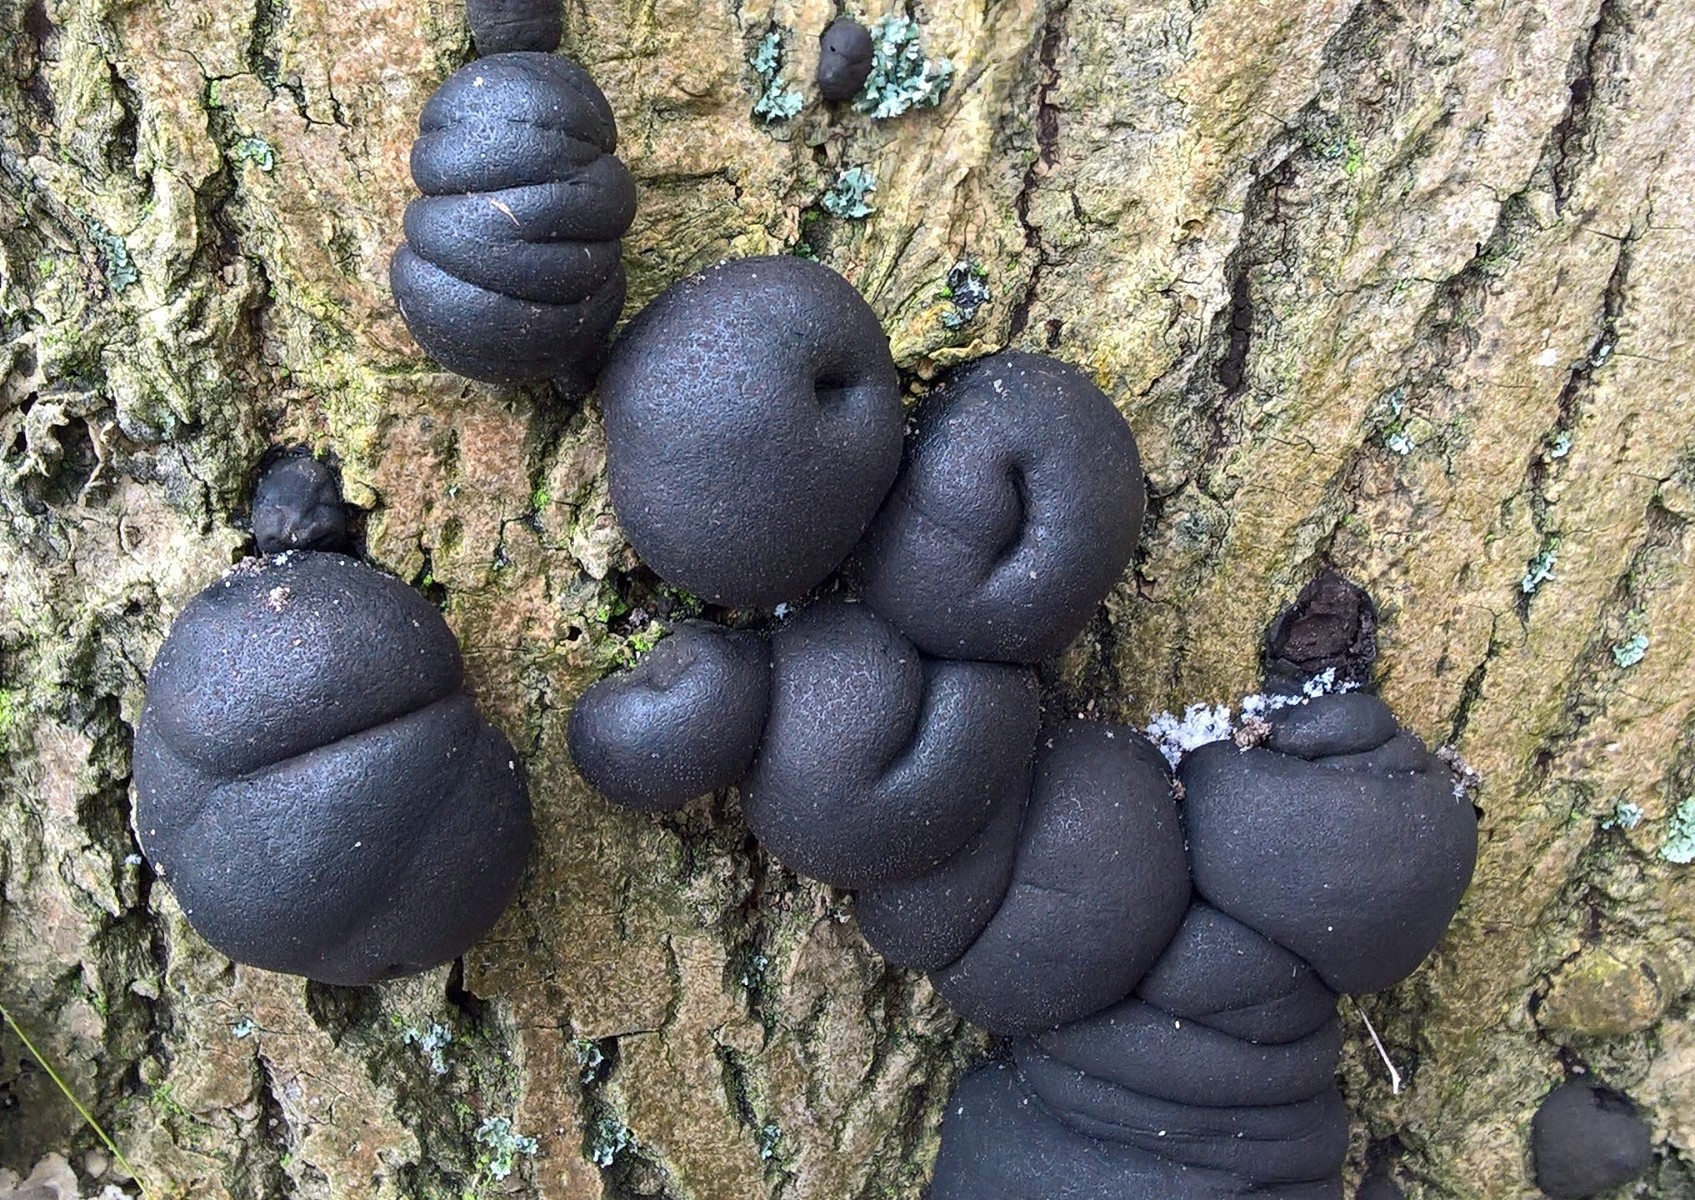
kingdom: Fungi
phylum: Ascomycota
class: Sordariomycetes
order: Xylariales
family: Hypoxylaceae
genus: Daldinia
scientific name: Daldinia concentrica
